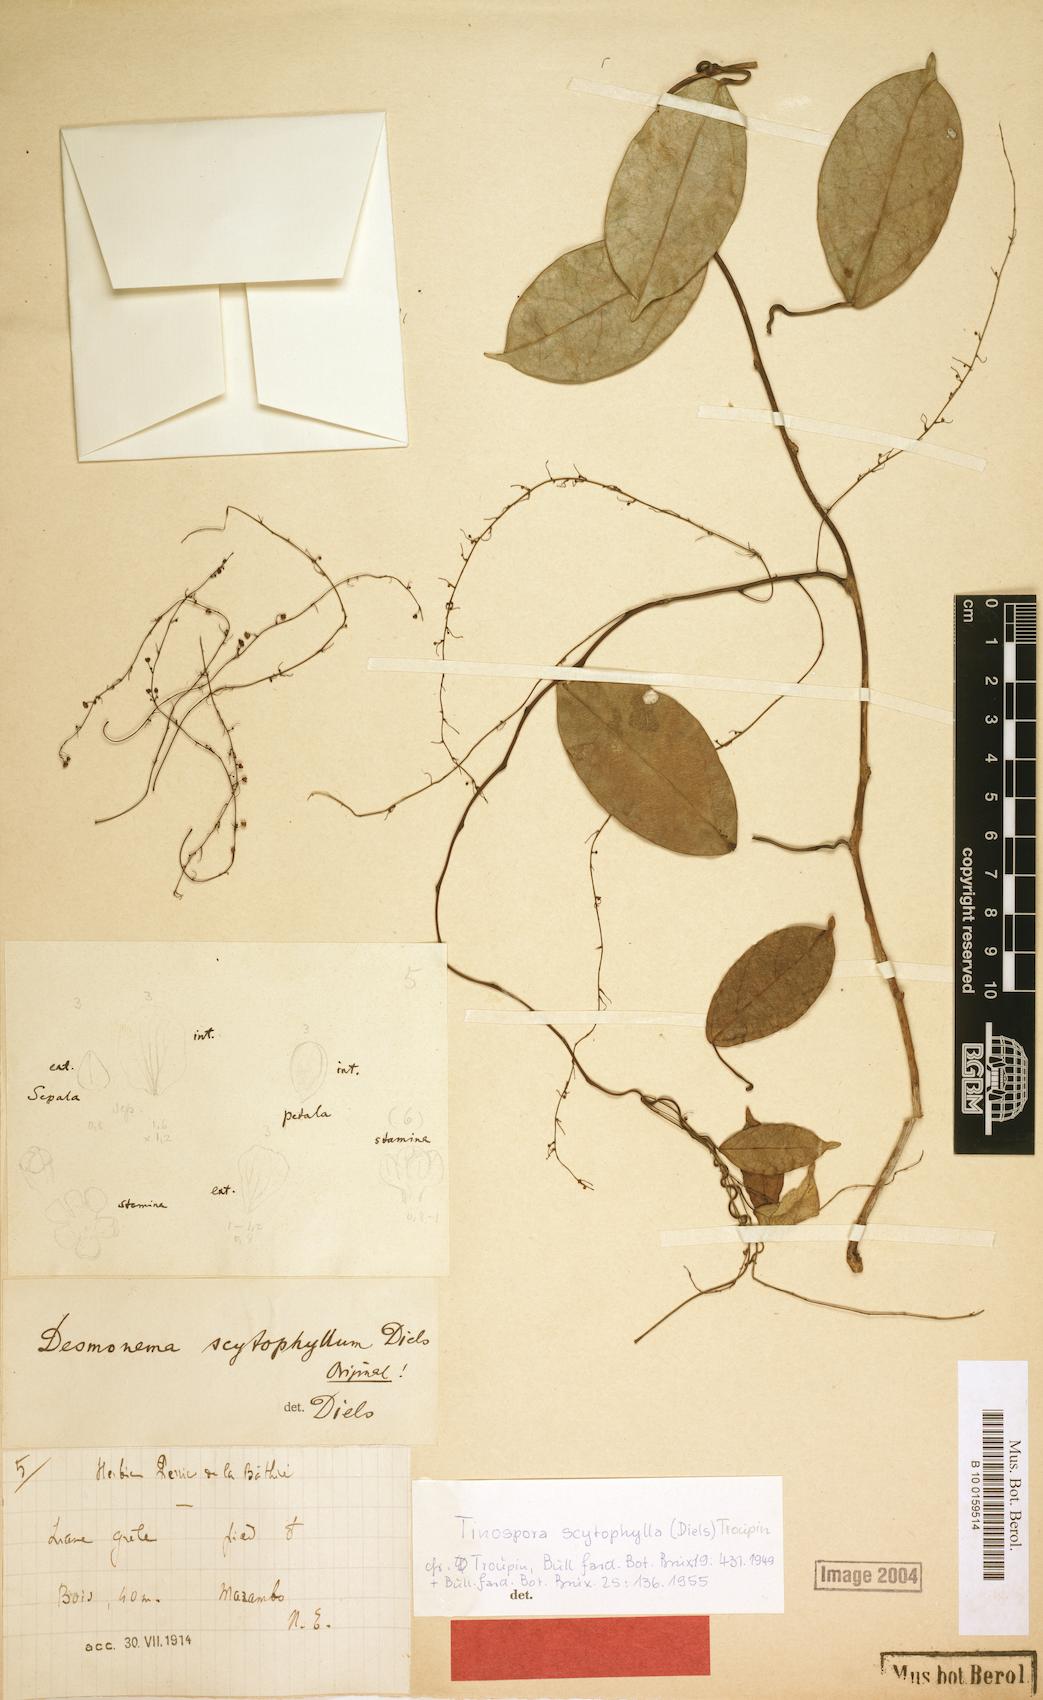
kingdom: Plantae
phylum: Tracheophyta
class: Magnoliopsida
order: Ranunculales
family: Menispermaceae
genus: Tinospora
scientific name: Tinospora scytophylla
